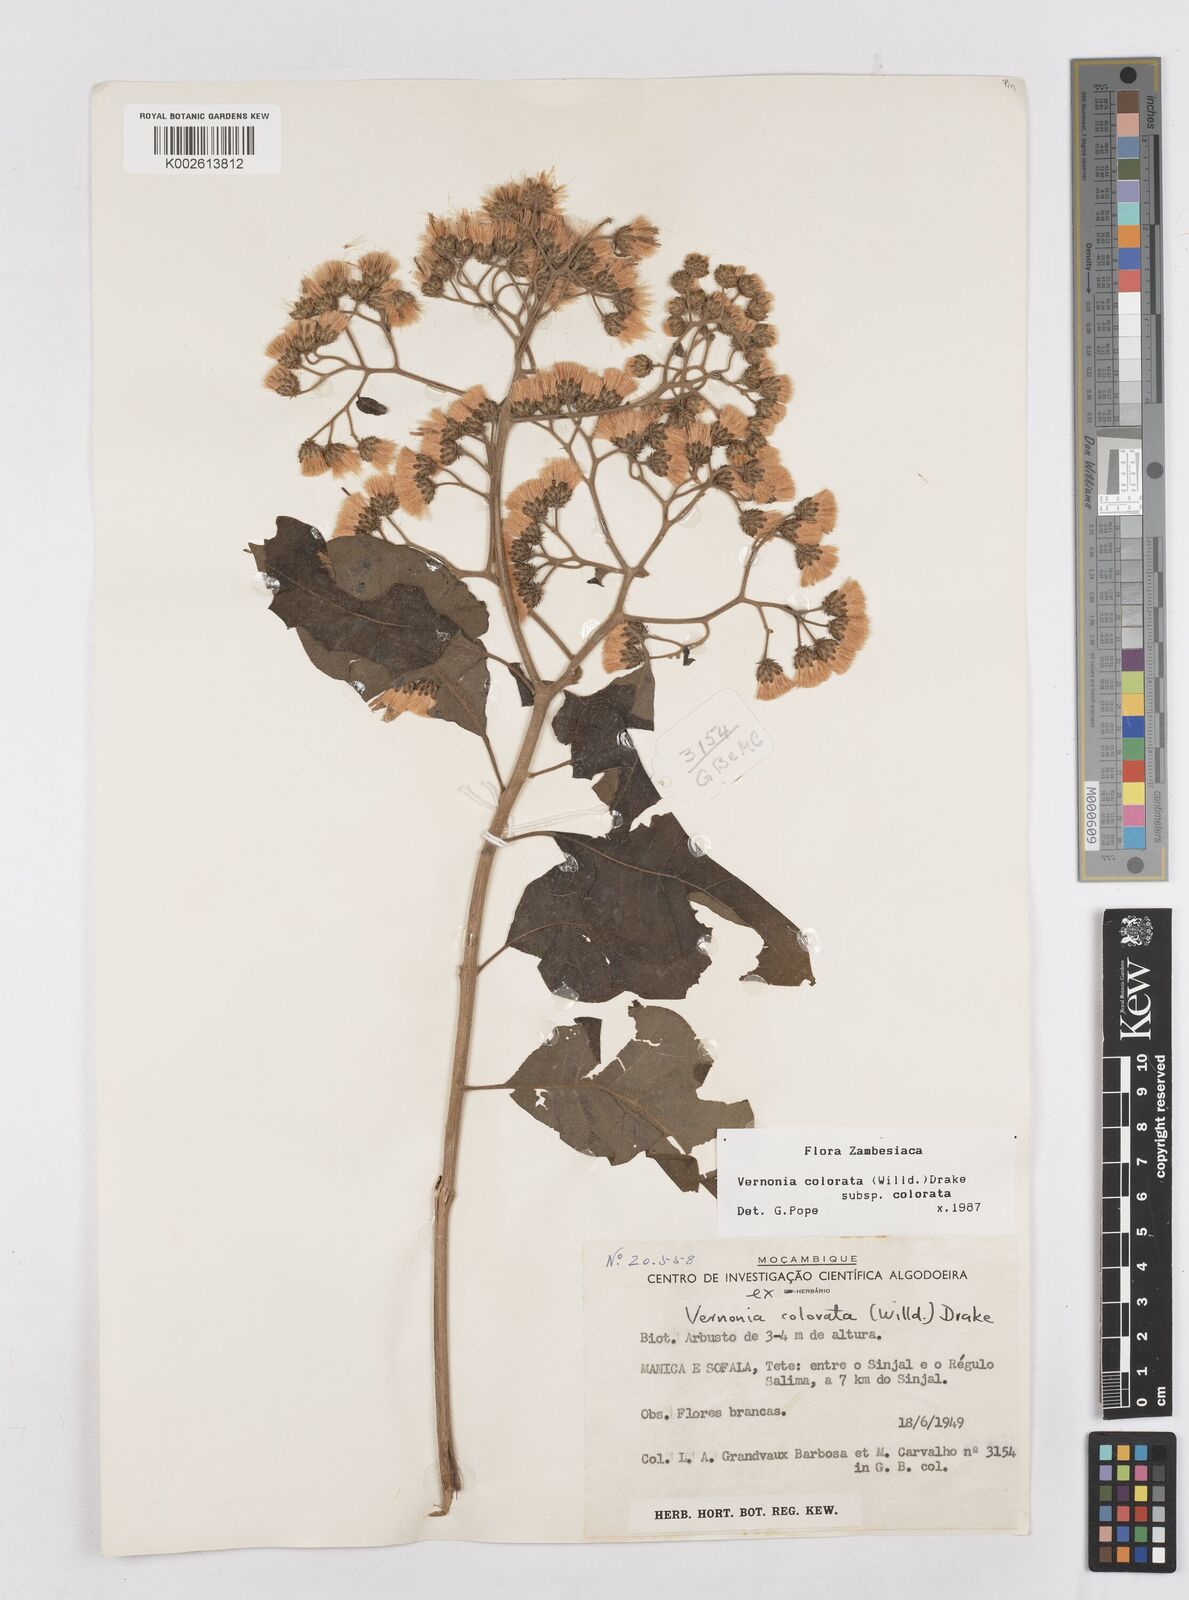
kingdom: Plantae
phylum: Tracheophyta
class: Magnoliopsida
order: Asterales
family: Asteraceae
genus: Vernonia
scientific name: Vernonia colorata
